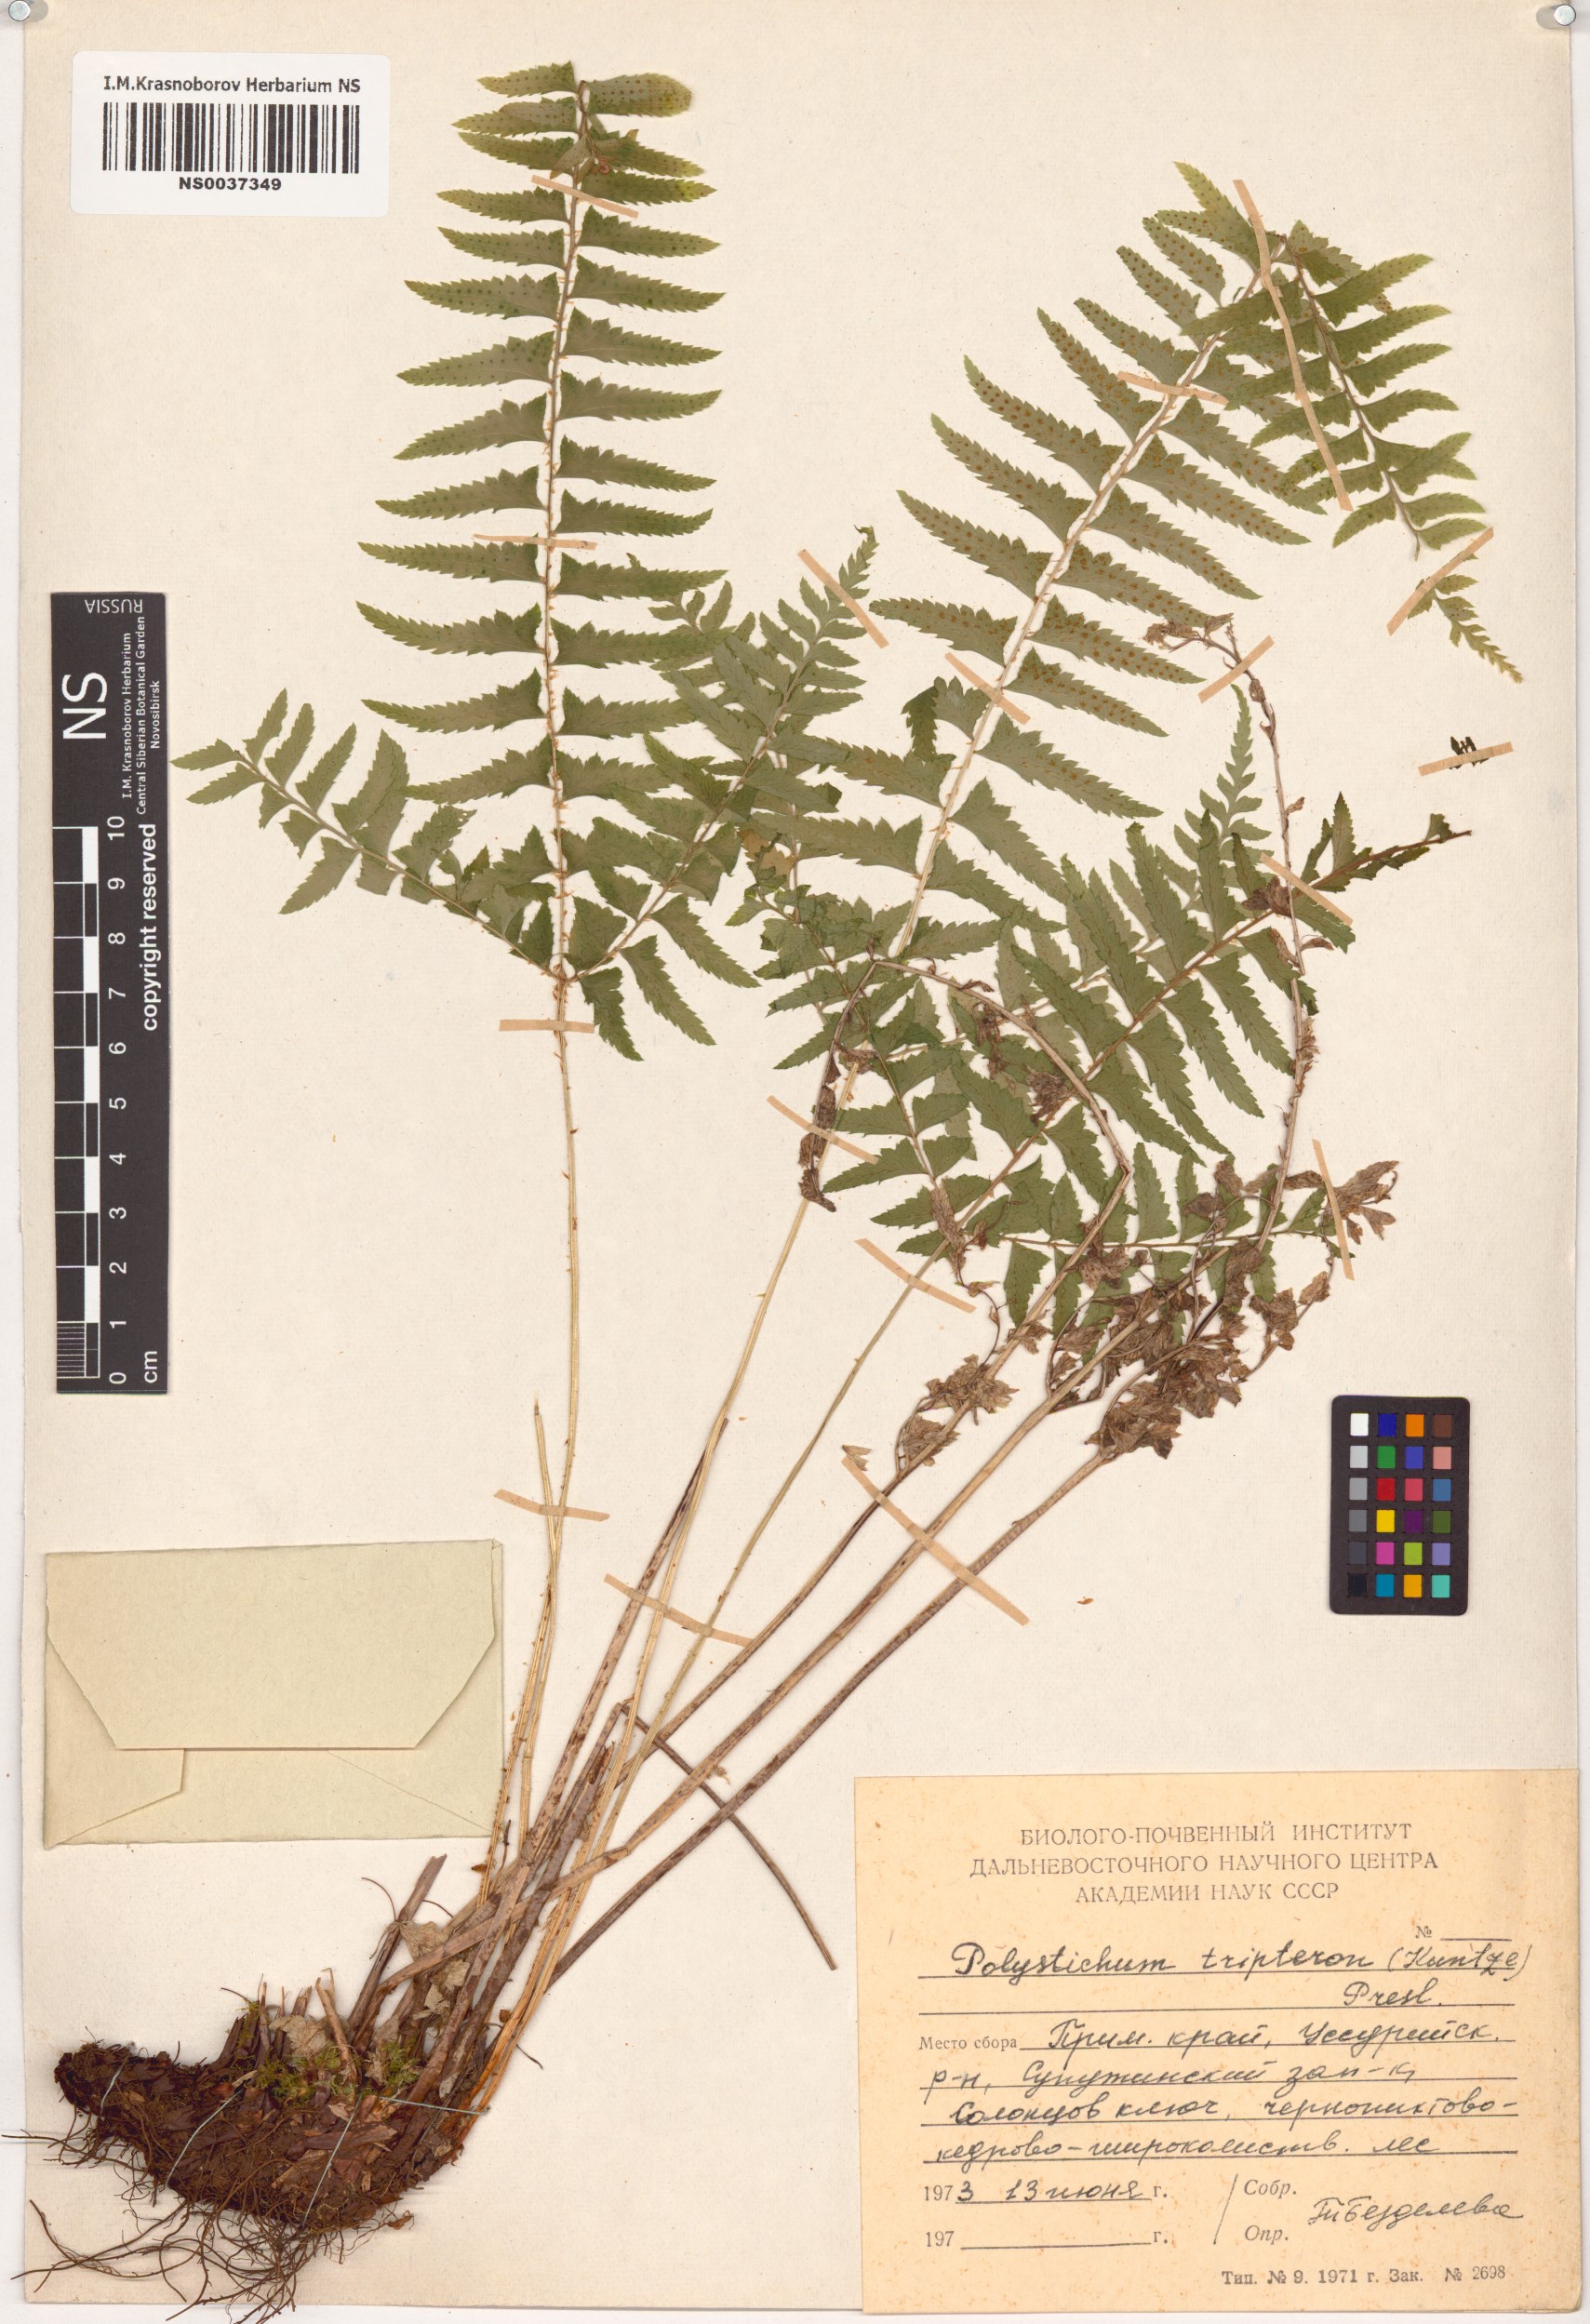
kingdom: Plantae
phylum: Tracheophyta
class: Polypodiopsida
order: Polypodiales
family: Dryopteridaceae
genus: Polystichum
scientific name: Polystichum tripteron
